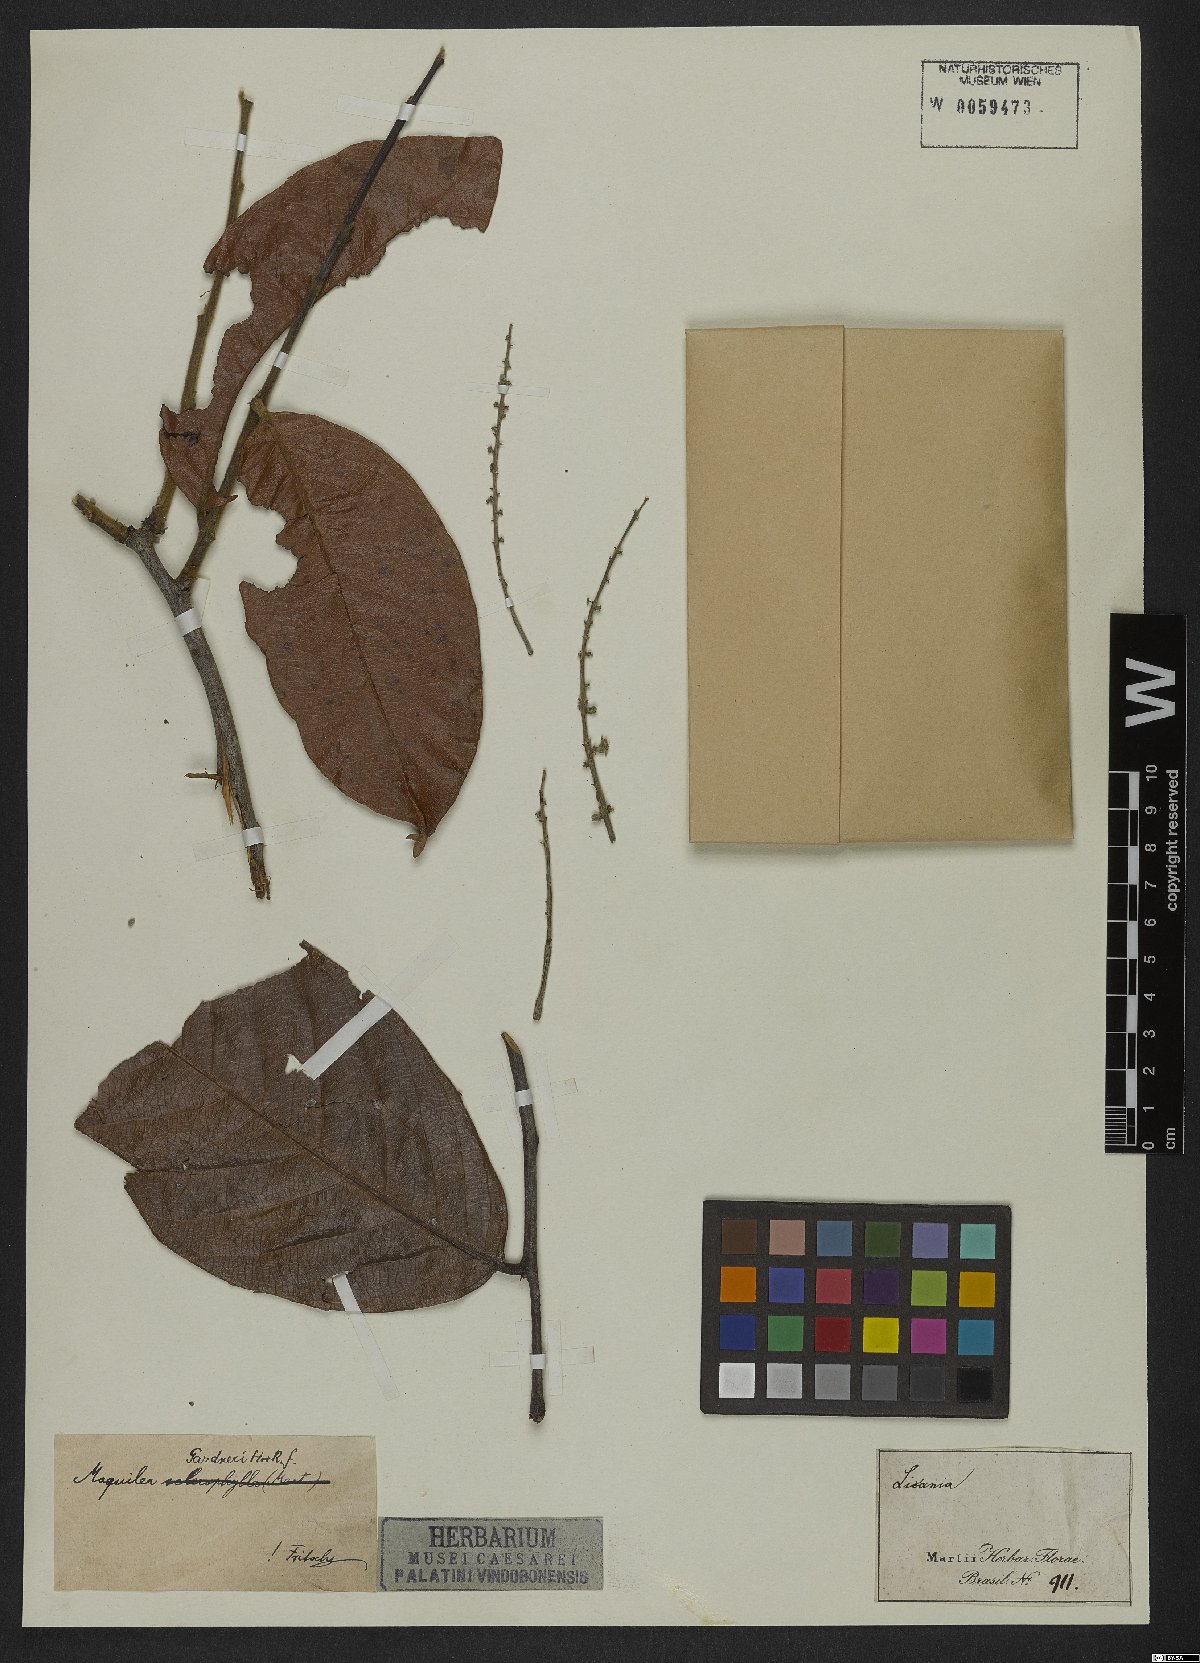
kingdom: Plantae
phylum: Tracheophyta
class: Magnoliopsida
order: Malpighiales
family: Chrysobalanaceae
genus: Leptobalanus
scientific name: Leptobalanus gardneri
